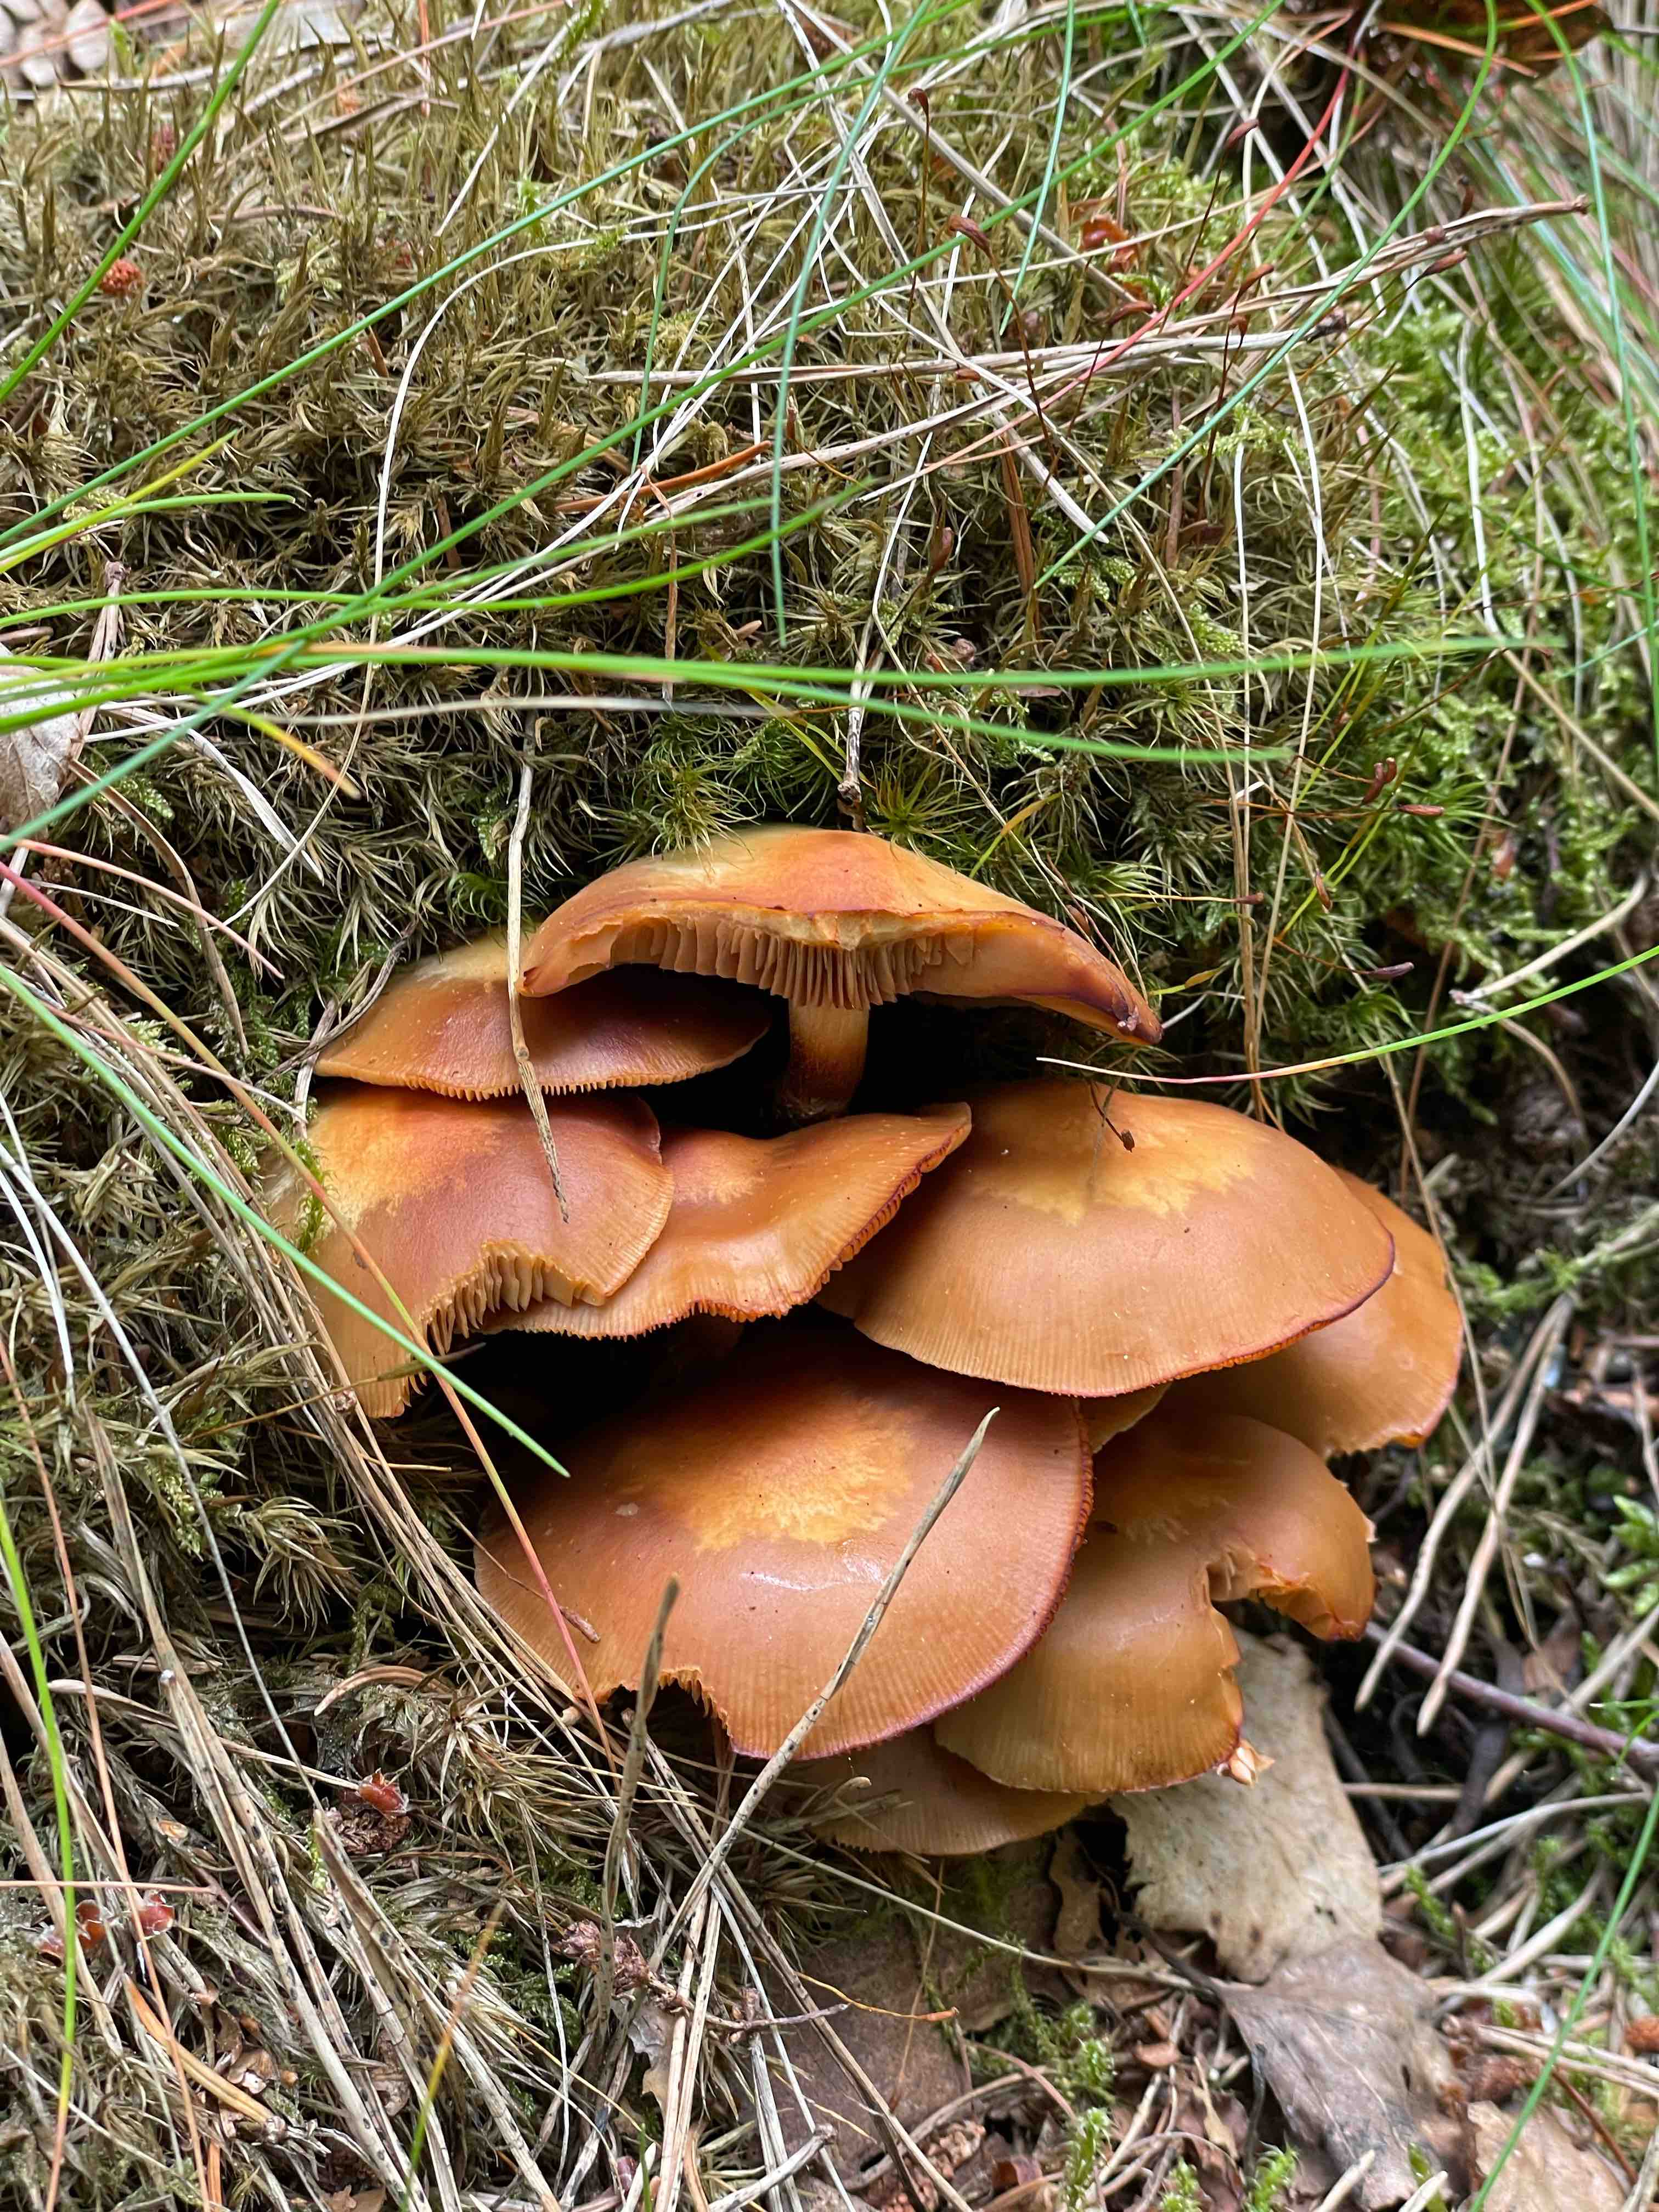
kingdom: Fungi
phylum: Basidiomycota
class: Agaricomycetes
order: Agaricales
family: Strophariaceae
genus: Kuehneromyces
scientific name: Kuehneromyces mutabilis
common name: foranderlig skælhat
